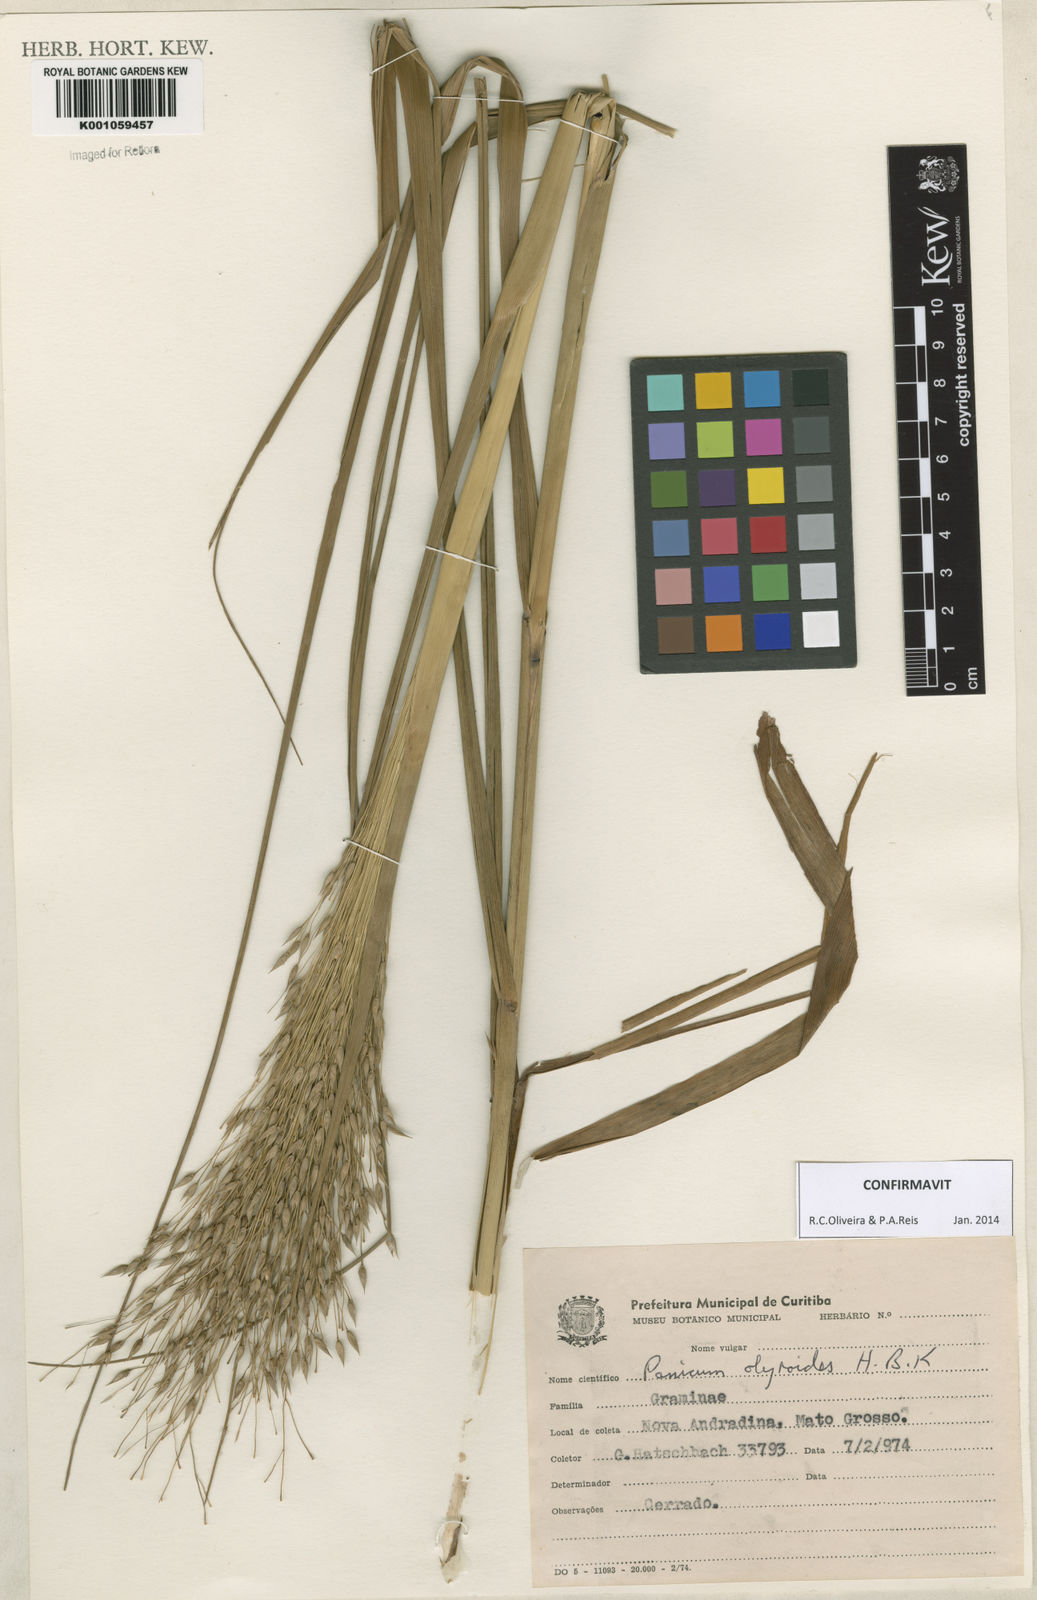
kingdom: Plantae
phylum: Tracheophyta
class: Liliopsida
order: Poales
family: Poaceae
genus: Panicum
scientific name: Panicum olyroides
